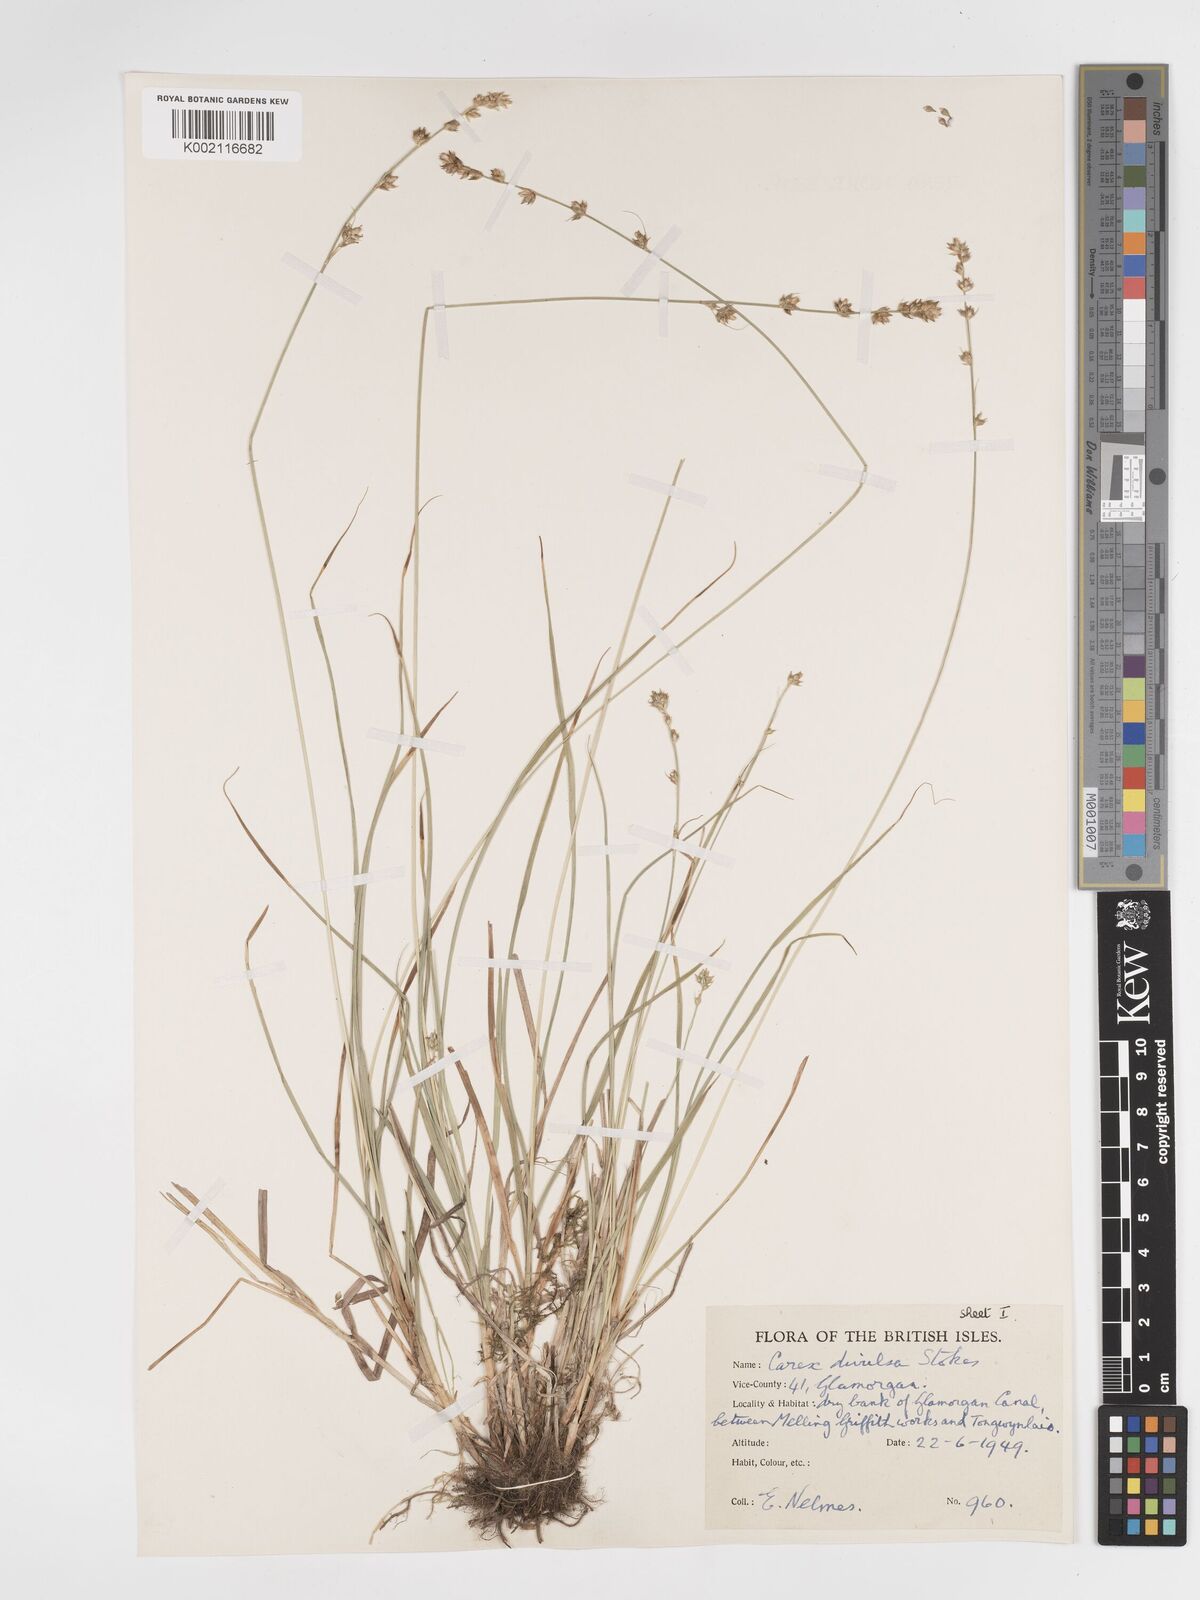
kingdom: Plantae
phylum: Tracheophyta
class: Liliopsida
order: Poales
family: Cyperaceae
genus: Carex
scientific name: Carex divulsa
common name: Grassland sedge
